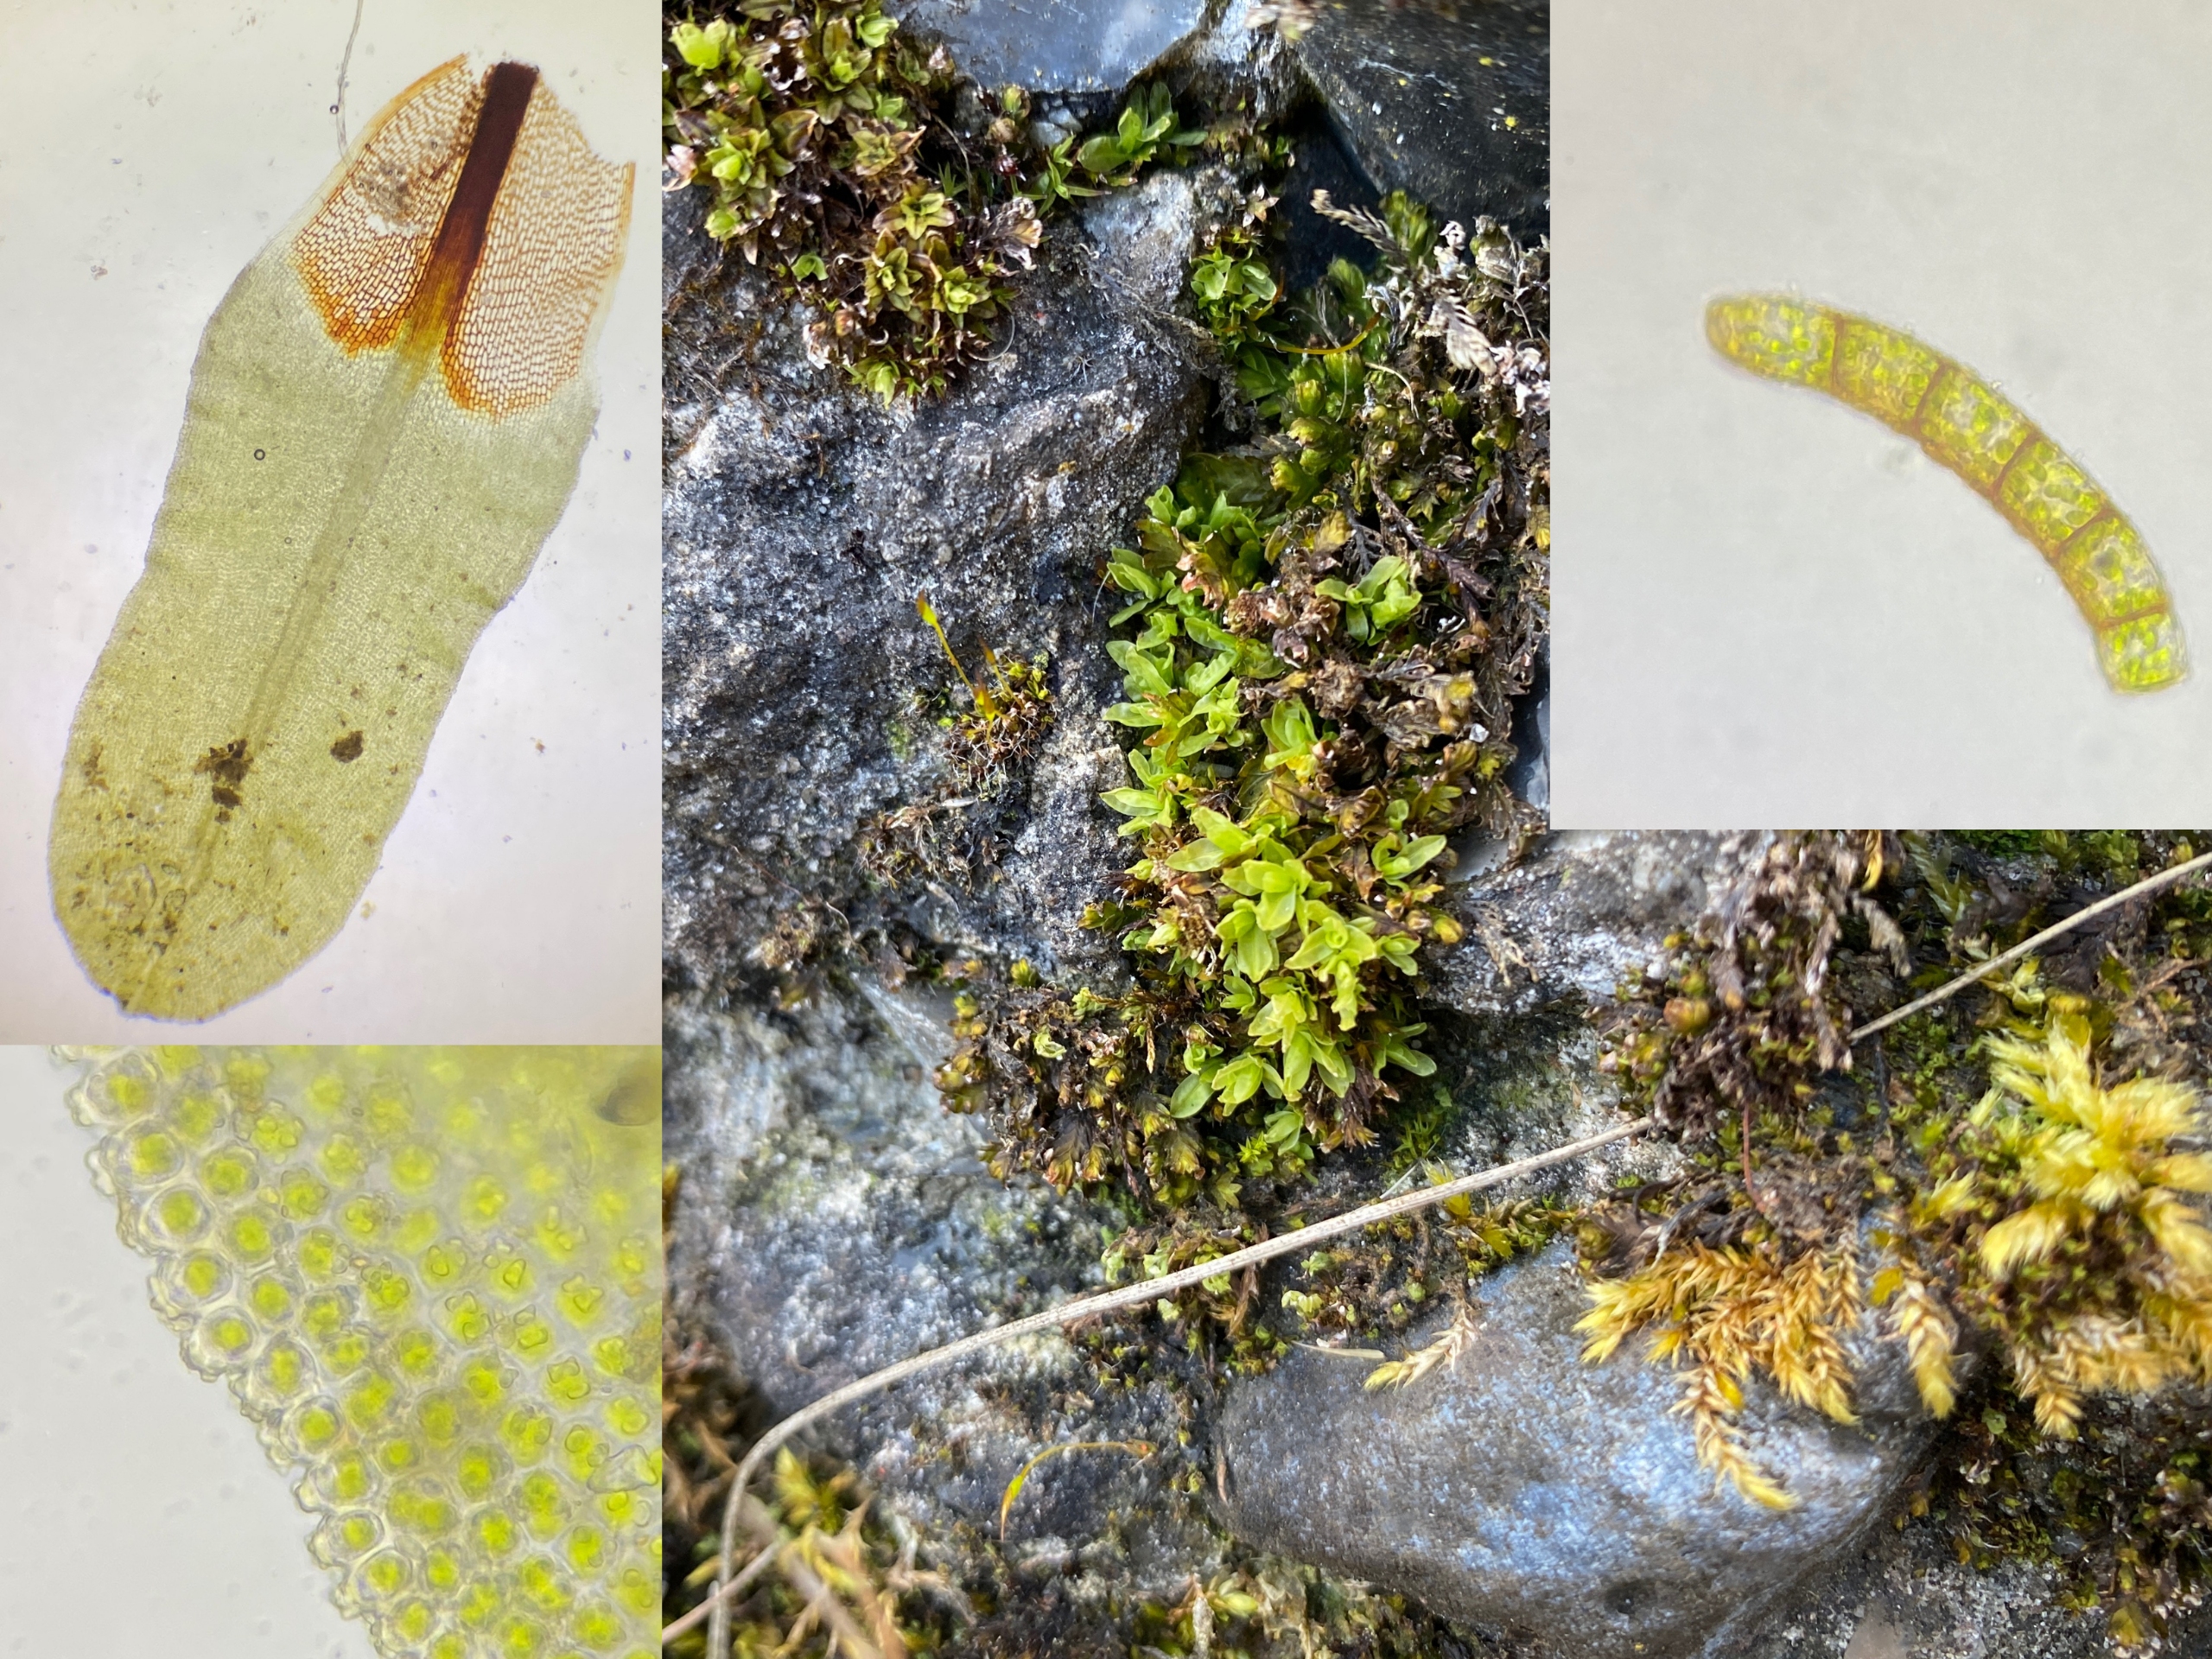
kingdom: Plantae
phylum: Bryophyta
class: Bryopsida
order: Encalyptales
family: Encalyptaceae
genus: Encalypta
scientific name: Encalypta streptocarpa
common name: Stor klokkehætte
